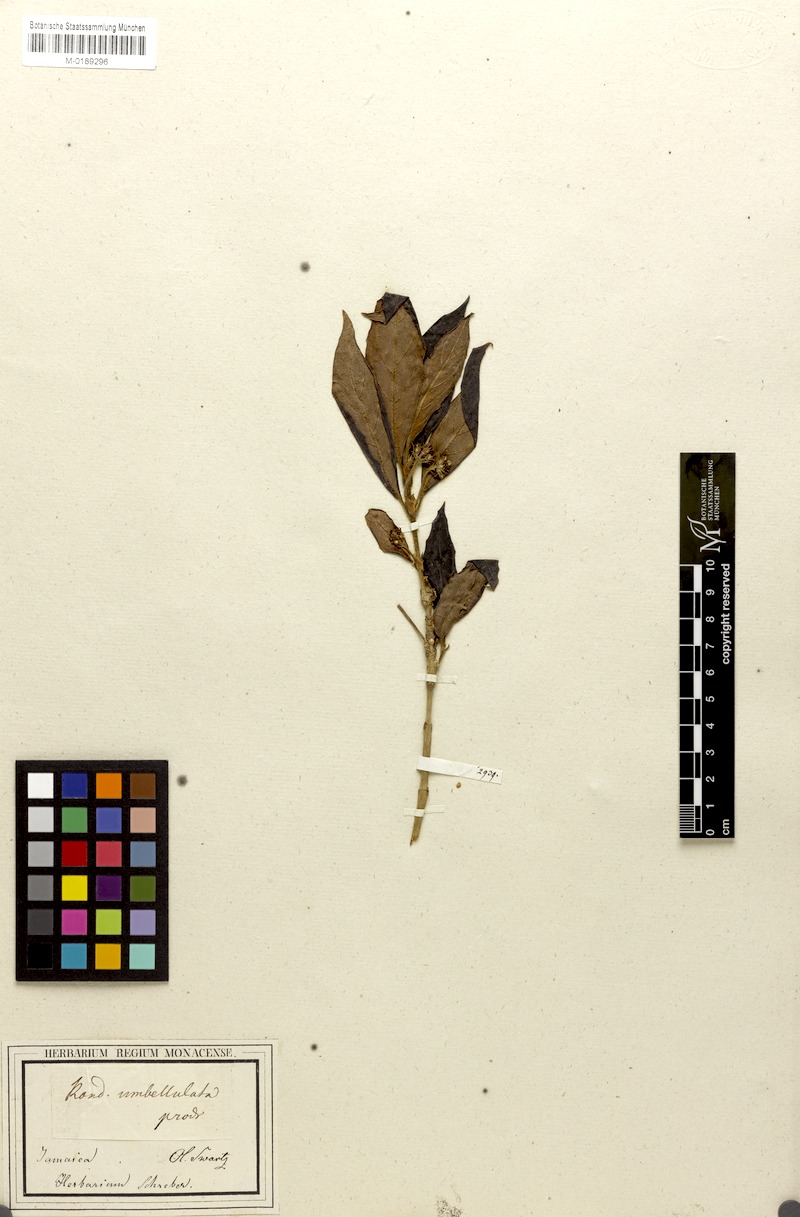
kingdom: Plantae
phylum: Tracheophyta
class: Magnoliopsida
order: Gentianales
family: Rubiaceae
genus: Rondeletia
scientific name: Rondeletia umbellulata
